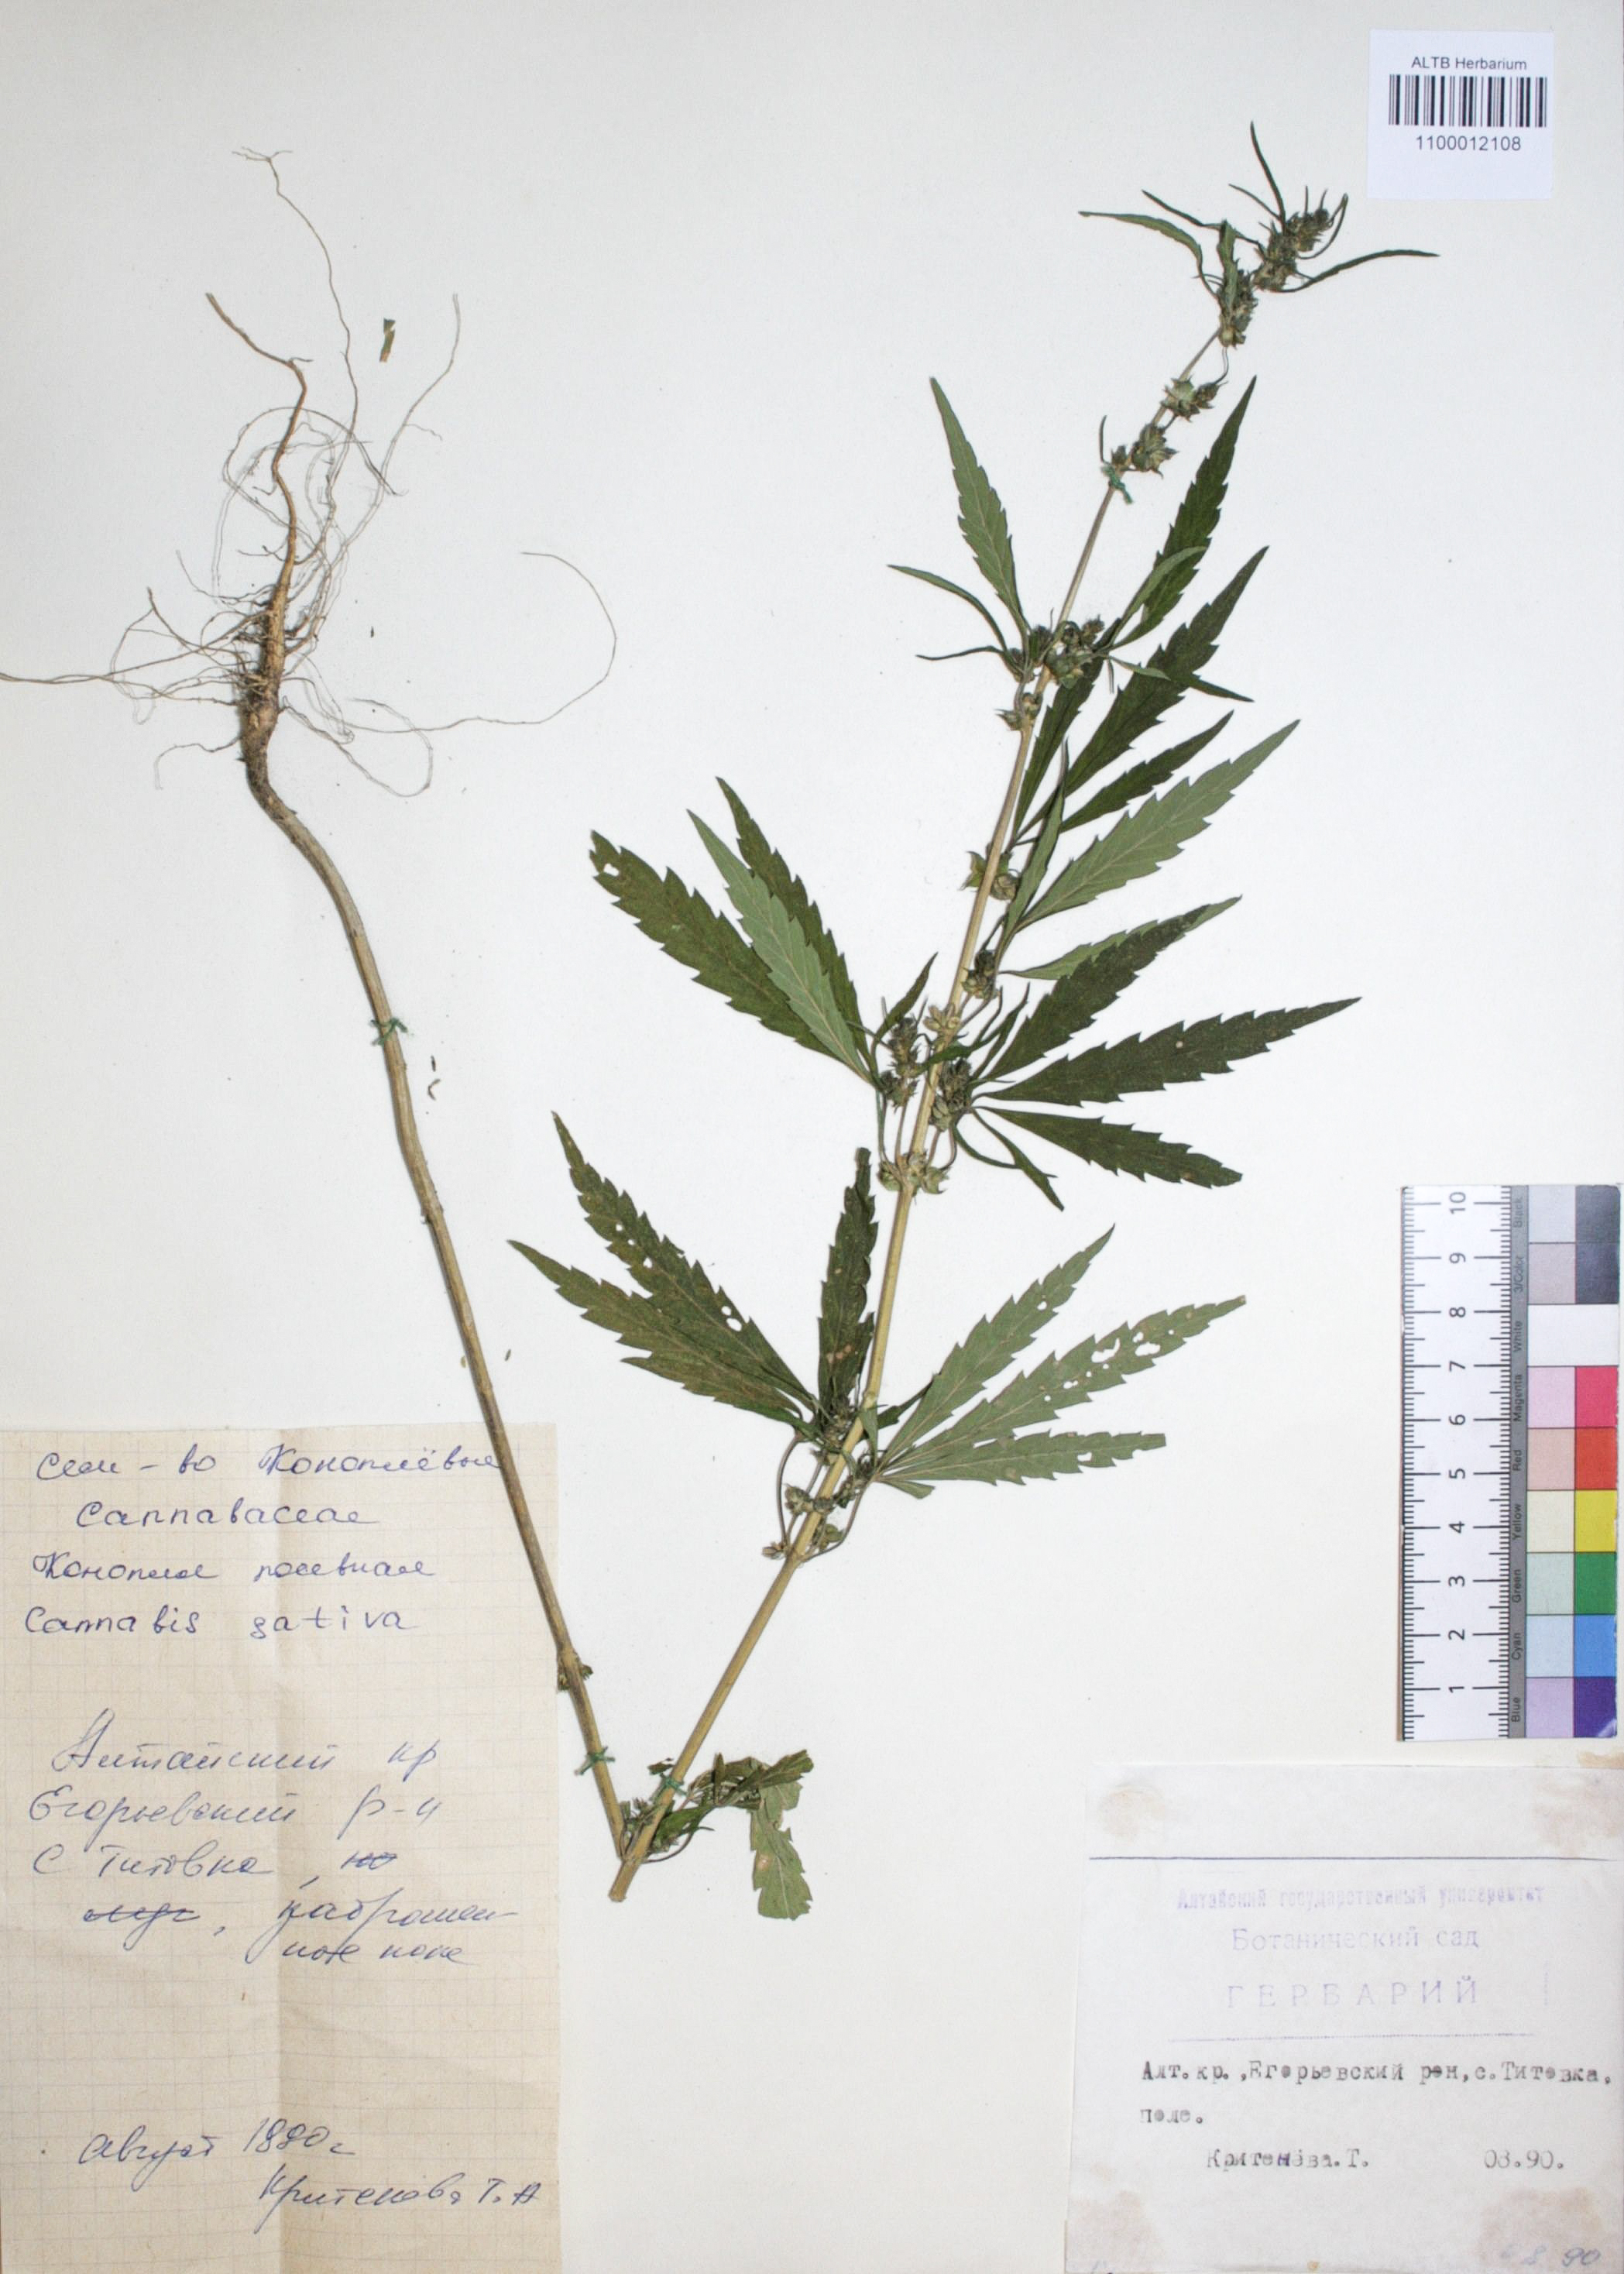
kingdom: Plantae
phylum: Tracheophyta
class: Magnoliopsida
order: Rosales
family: Cannabaceae
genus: Cannabis
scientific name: Cannabis sativa
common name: Hemp
